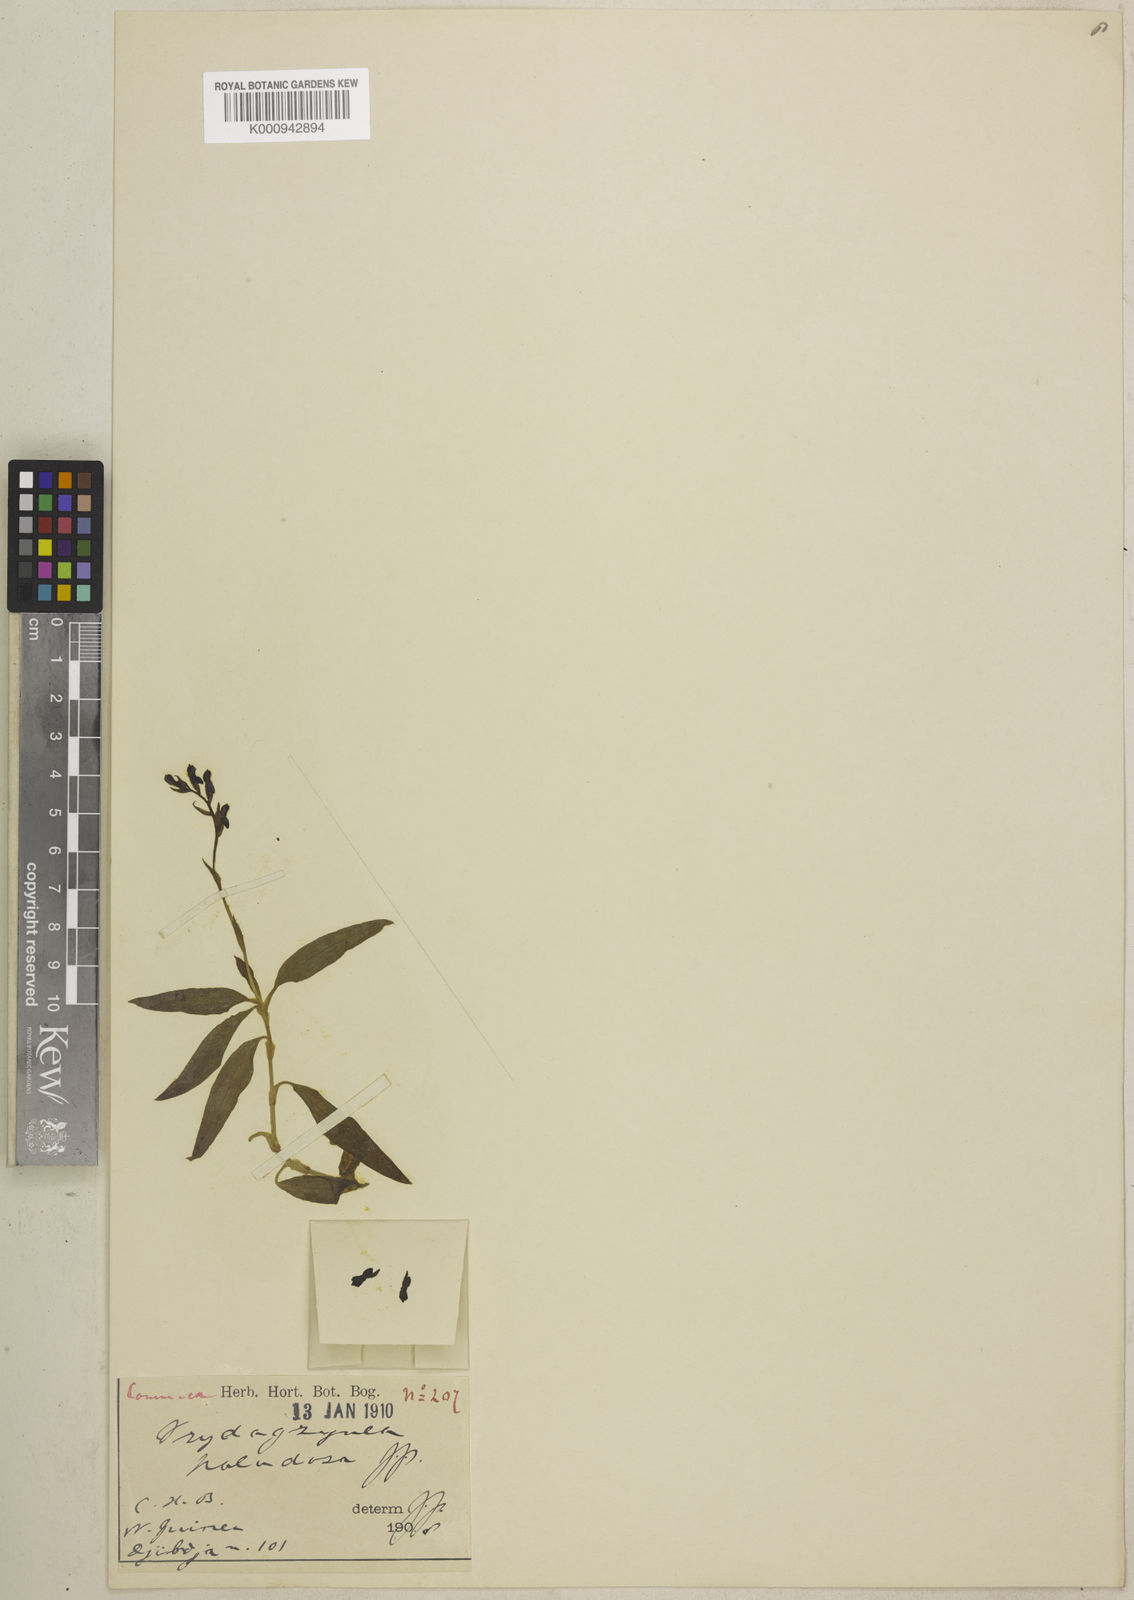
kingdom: Plantae
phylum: Tracheophyta
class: Liliopsida
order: Asparagales
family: Orchidaceae
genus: Vrydagzynea
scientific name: Vrydagzynea paludosa
